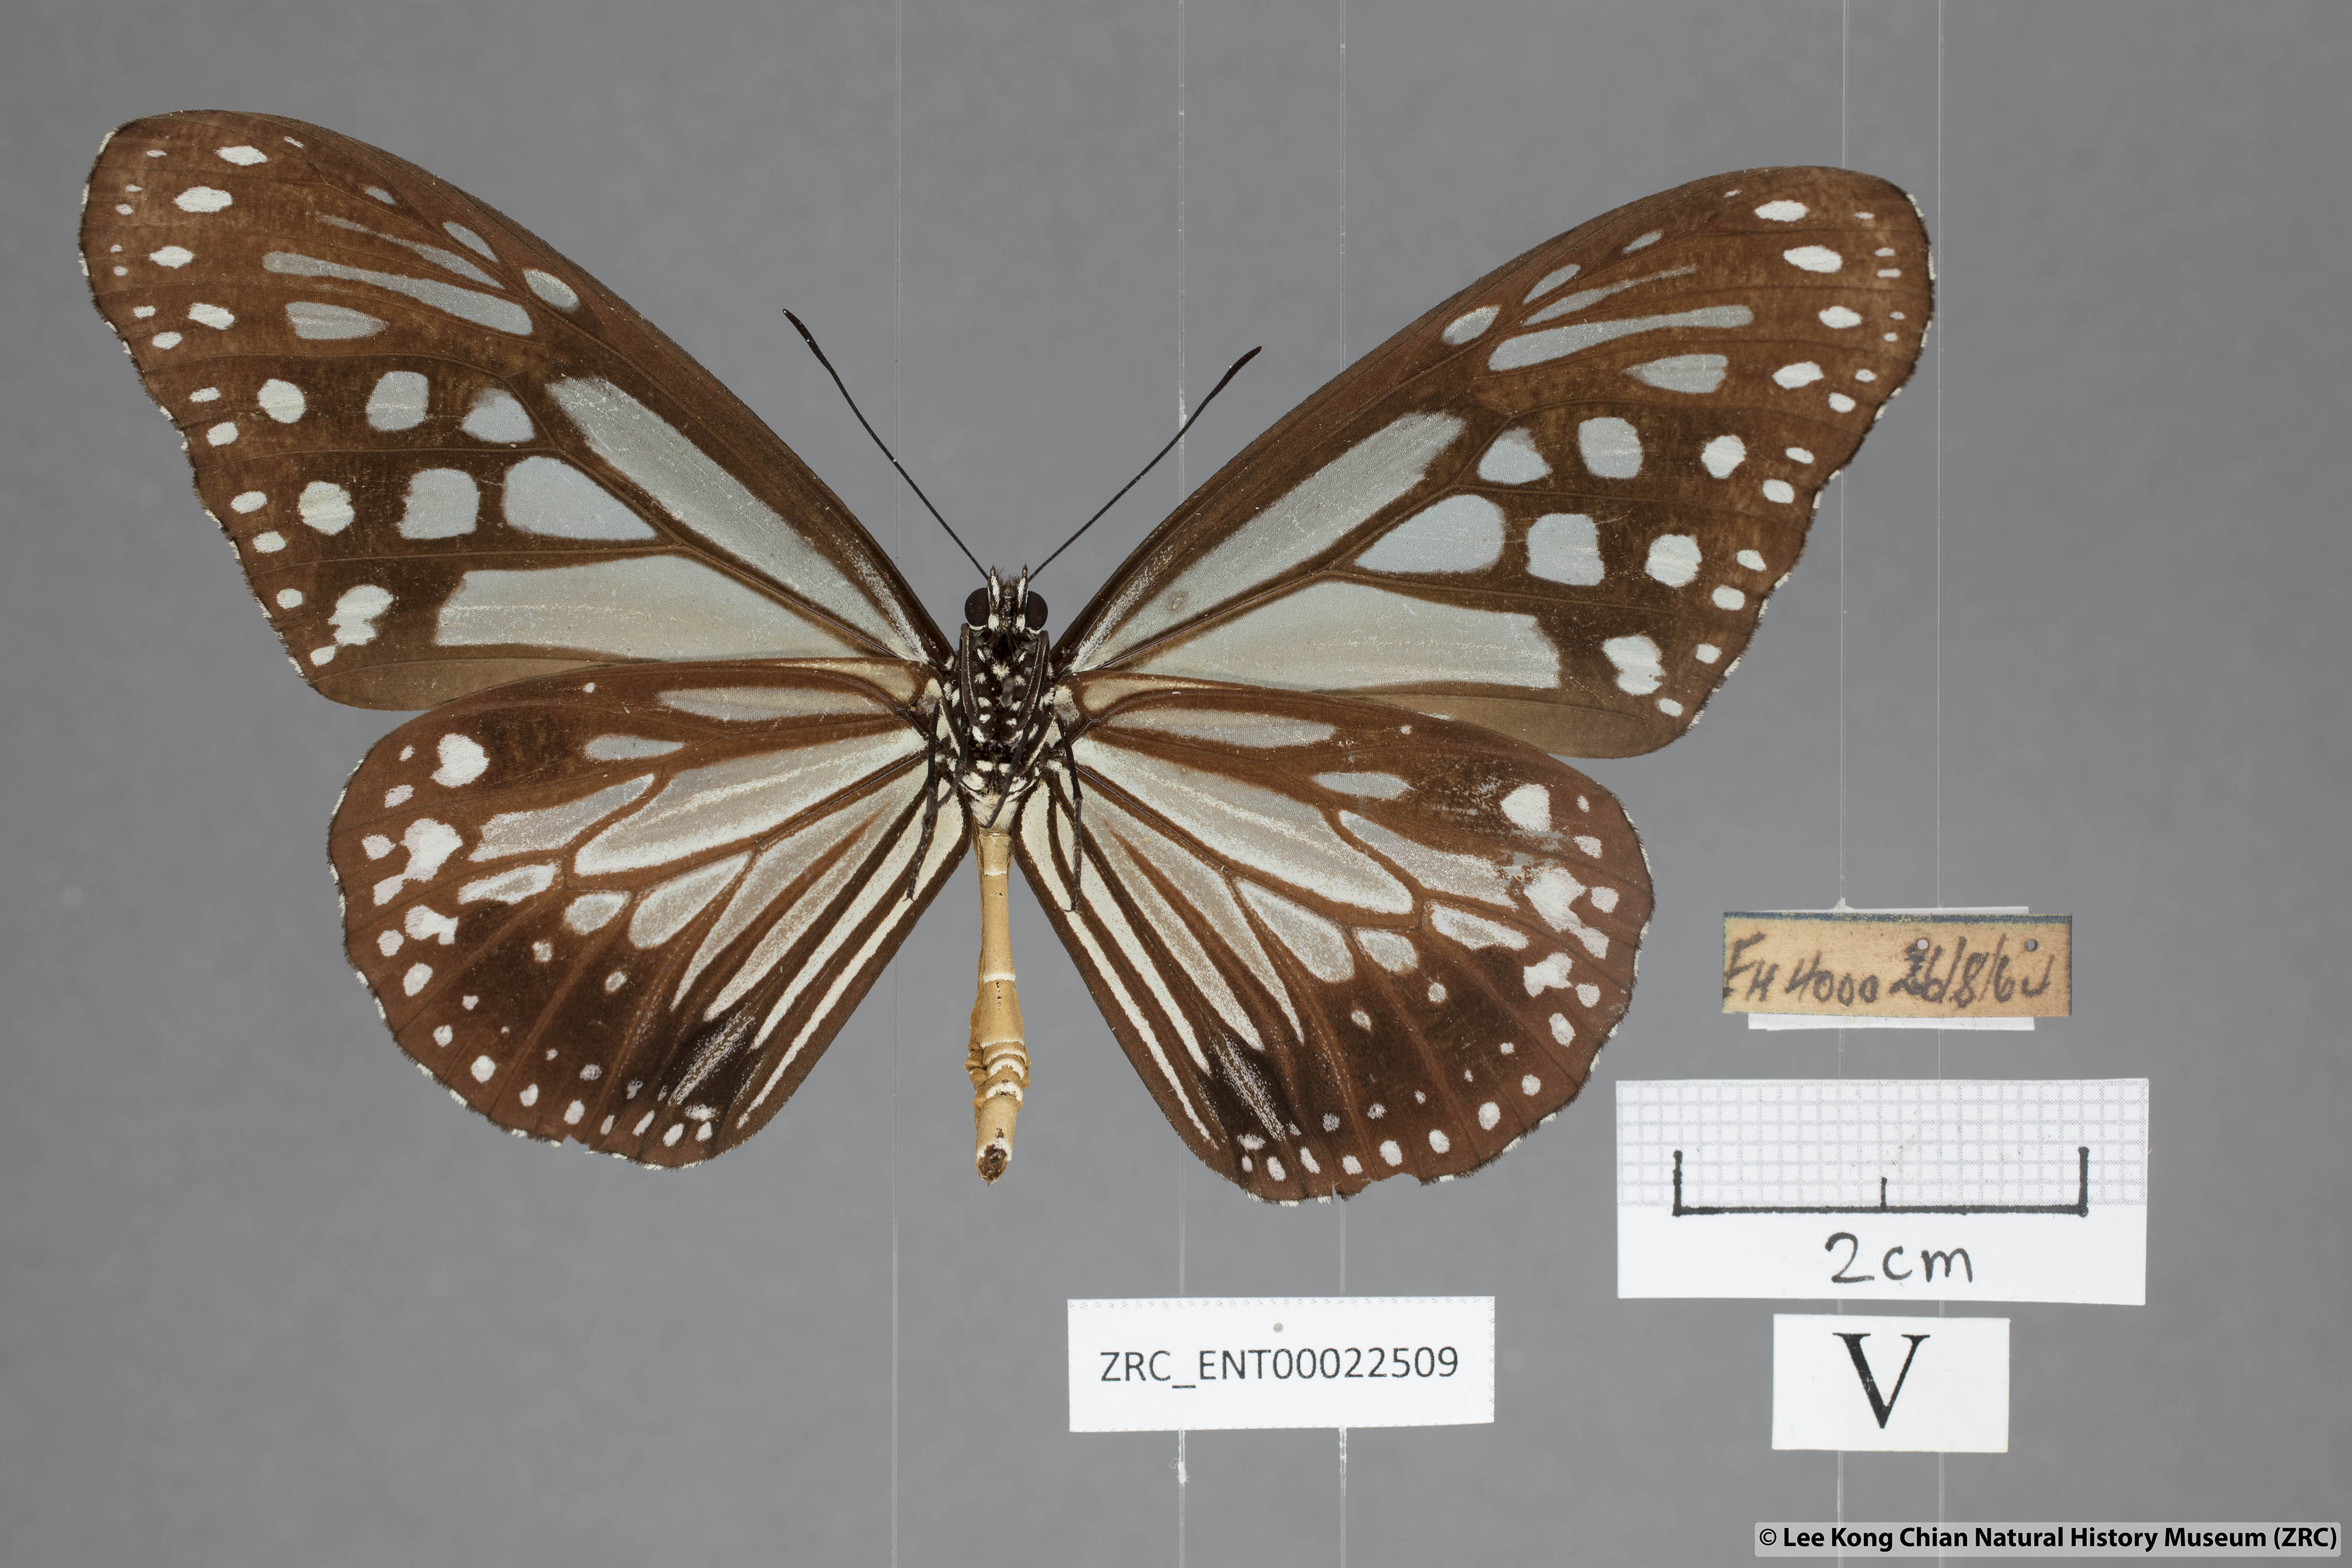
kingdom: Animalia
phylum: Arthropoda
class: Insecta
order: Lepidoptera
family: Nymphalidae
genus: Parantica
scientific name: Parantica melaneus
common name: Chocolate tiger
